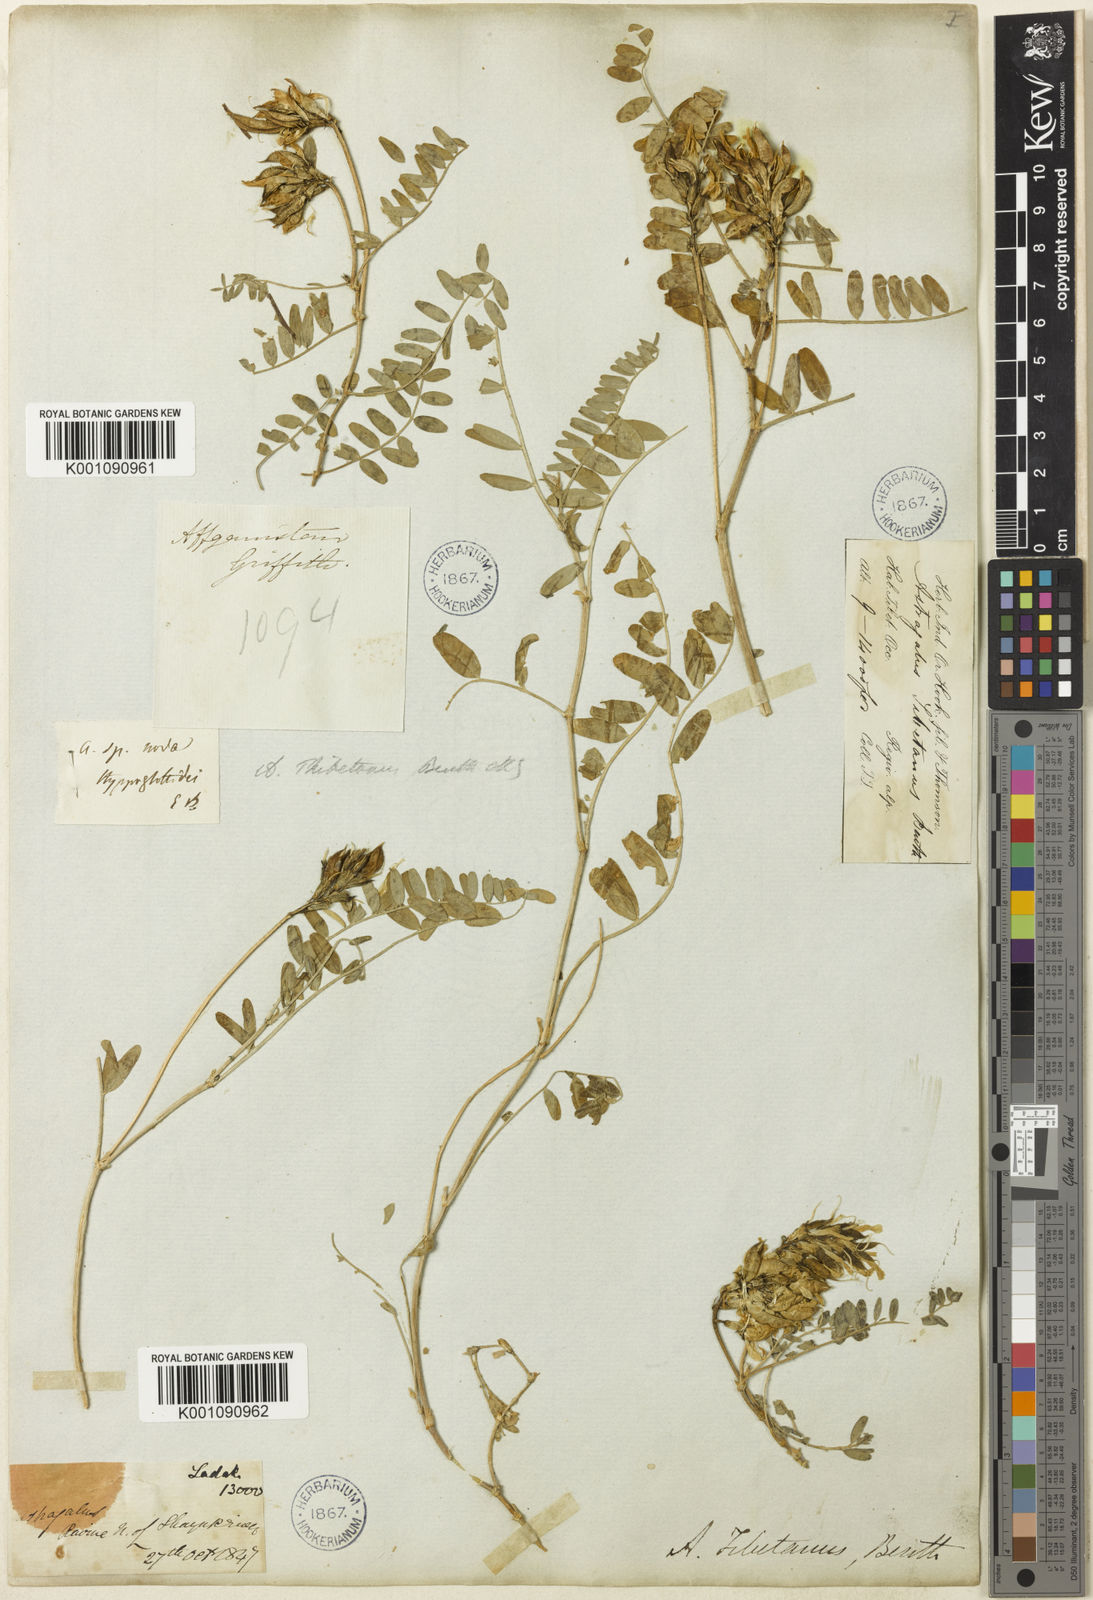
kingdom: Plantae
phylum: Tracheophyta
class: Magnoliopsida
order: Fabales
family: Fabaceae
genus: Astragalus
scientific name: Astragalus
